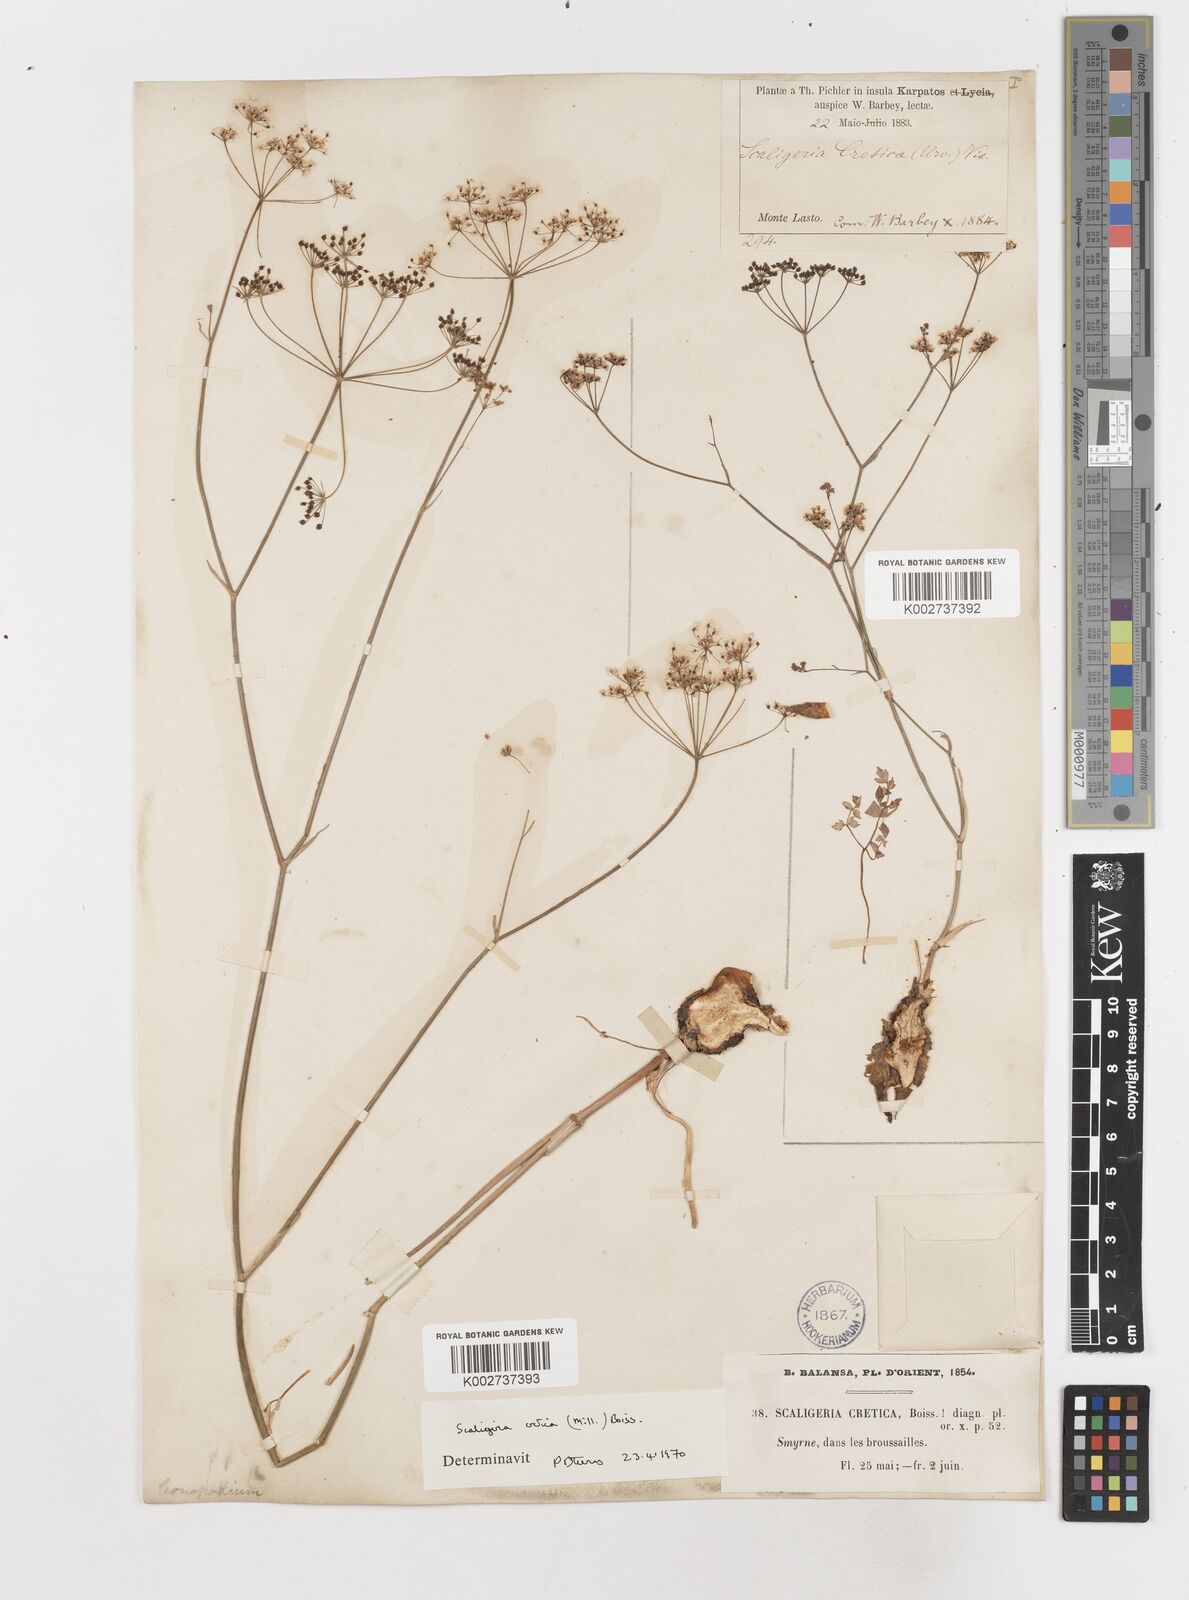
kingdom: Plantae
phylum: Tracheophyta
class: Magnoliopsida
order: Apiales
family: Apiaceae
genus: Scaligeria
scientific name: Scaligeria
